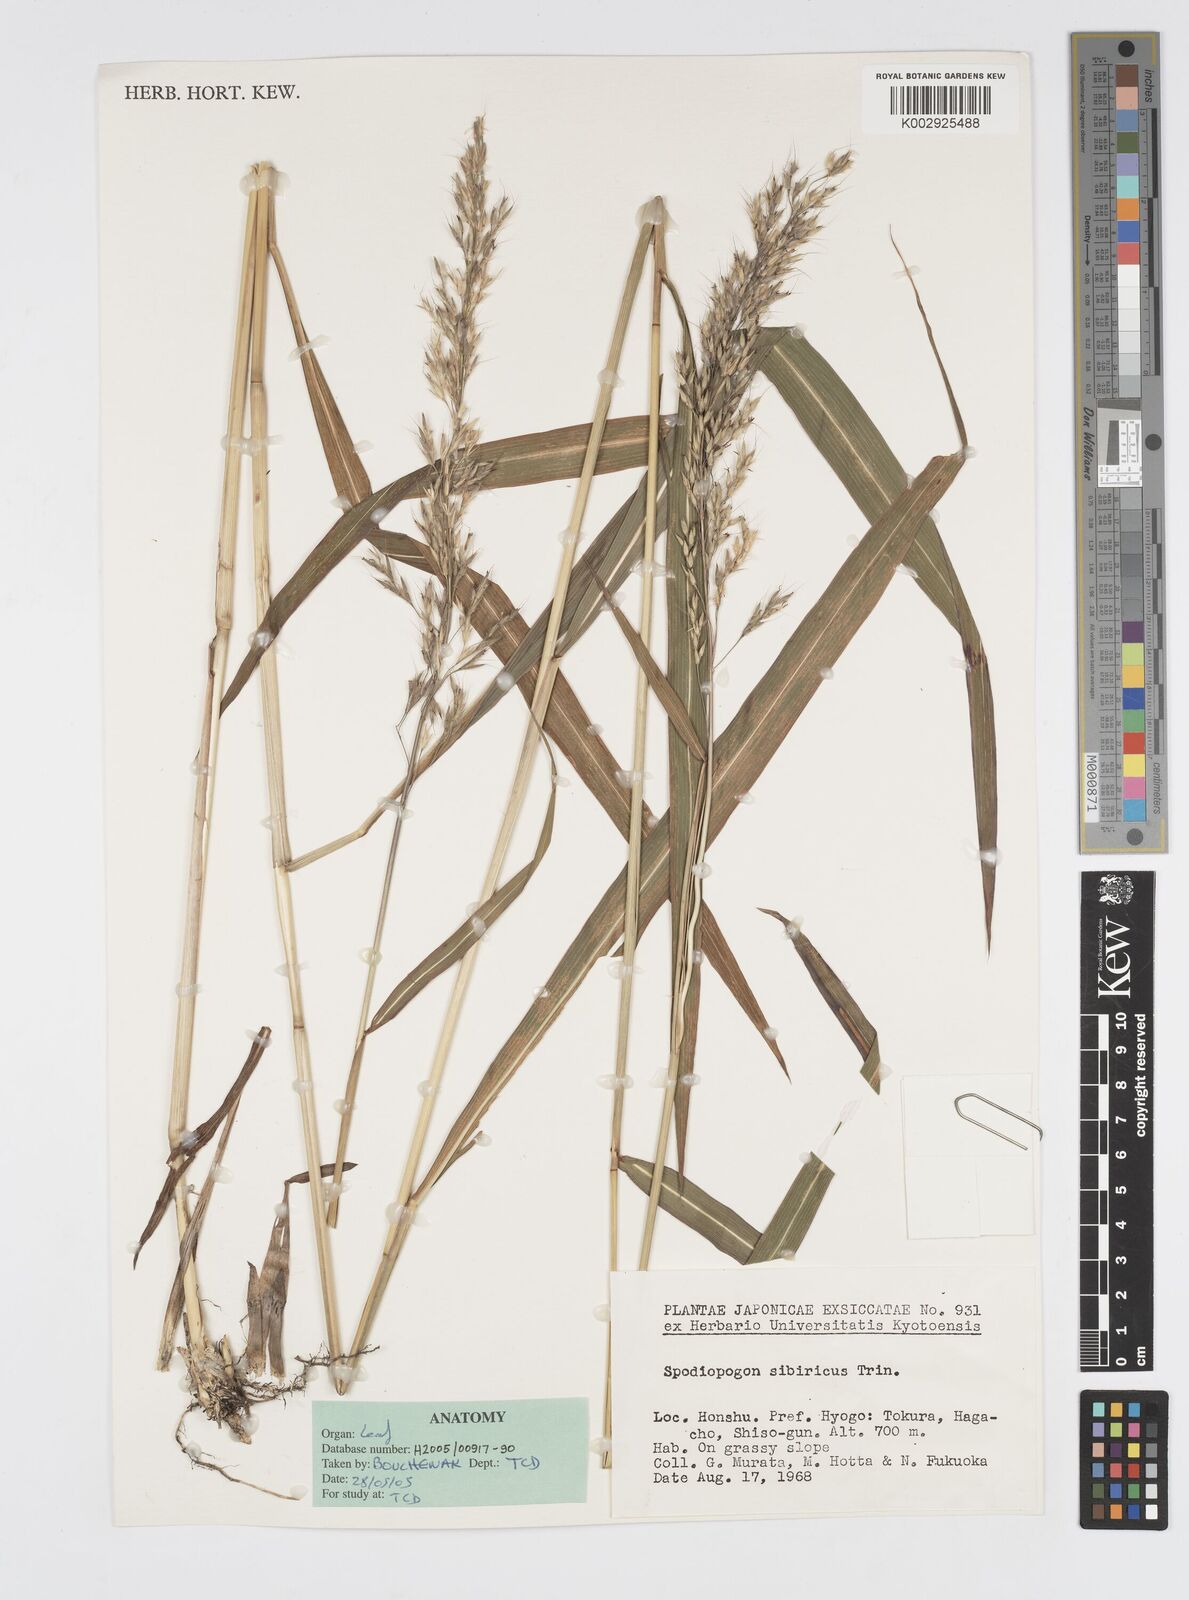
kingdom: Plantae
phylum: Tracheophyta
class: Liliopsida
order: Poales
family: Poaceae
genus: Spodiopogon
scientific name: Spodiopogon sibiricus
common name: Siberian graybeard
